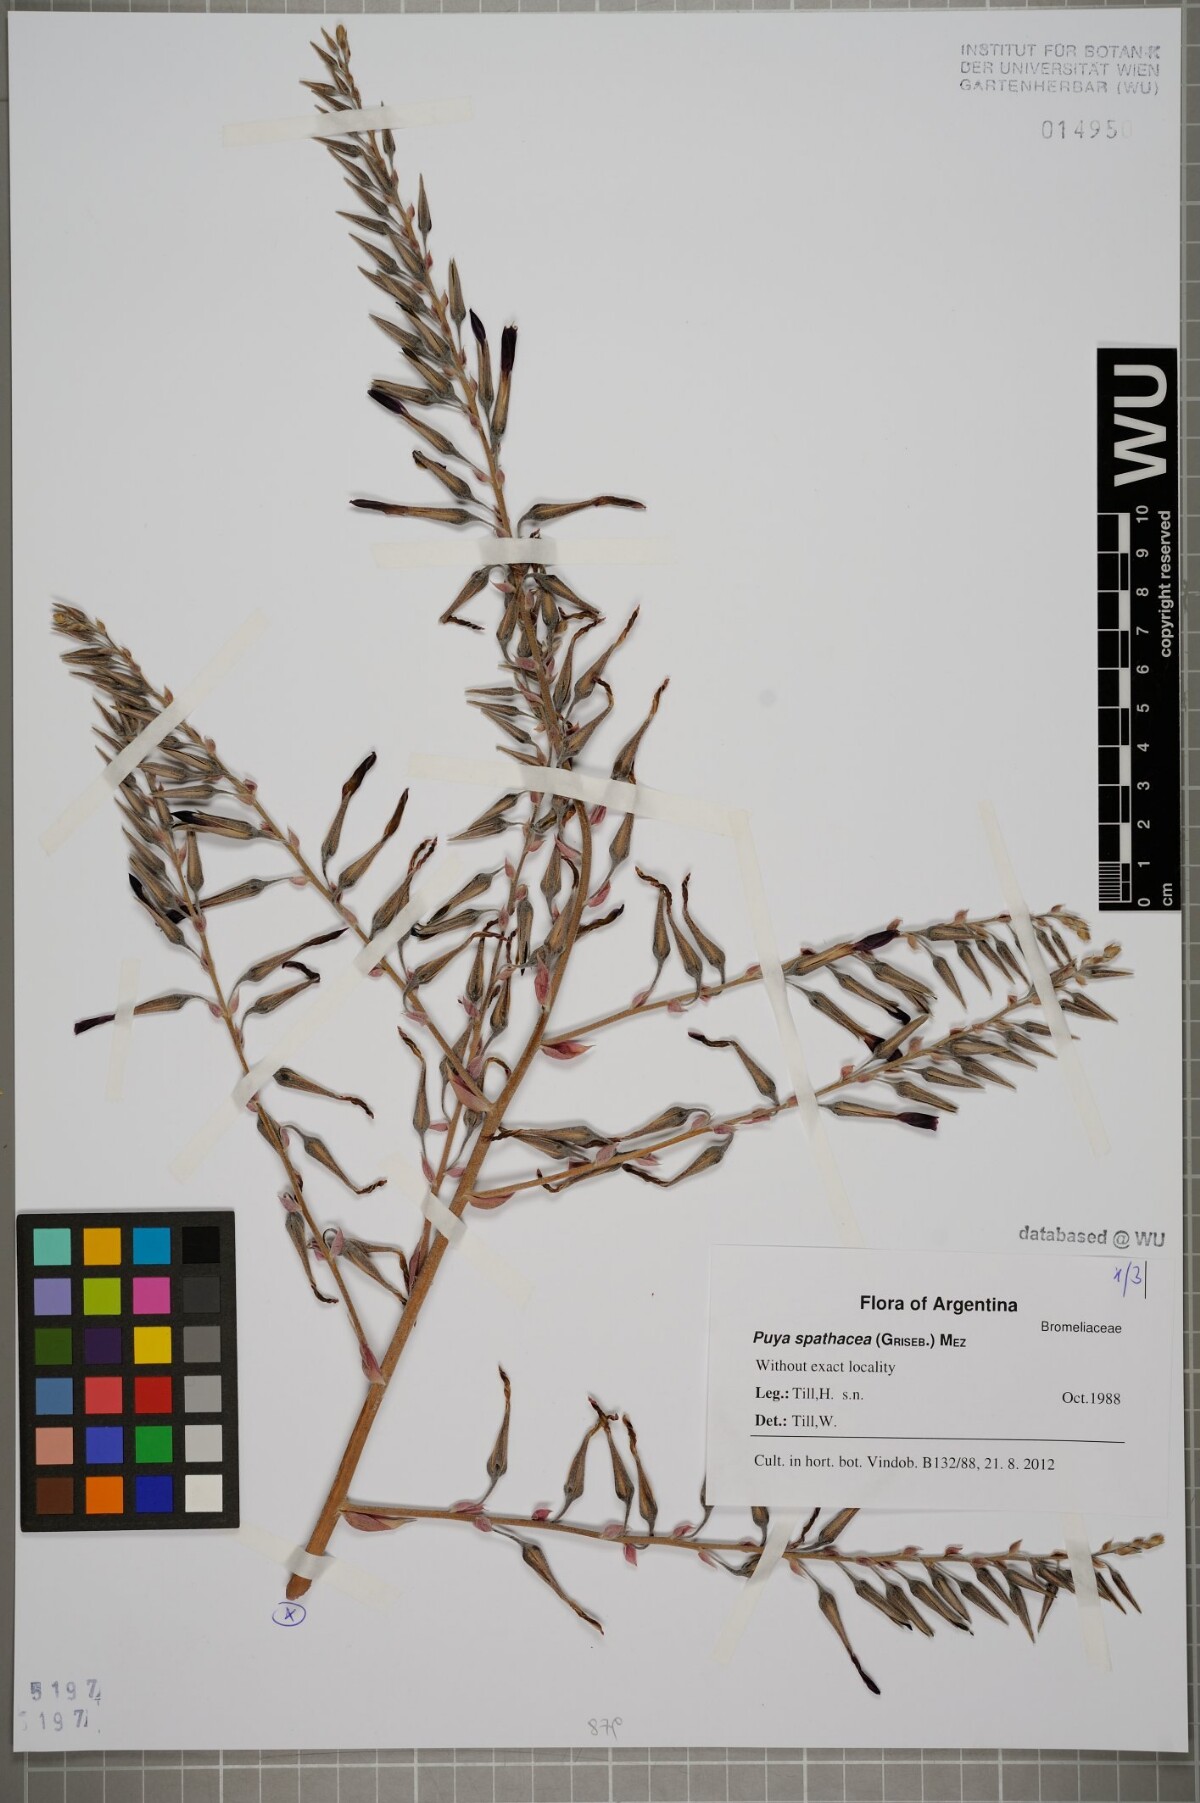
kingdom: Plantae
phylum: Tracheophyta
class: Liliopsida
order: Poales
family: Bromeliaceae
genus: Puya
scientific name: Puya spathacea
